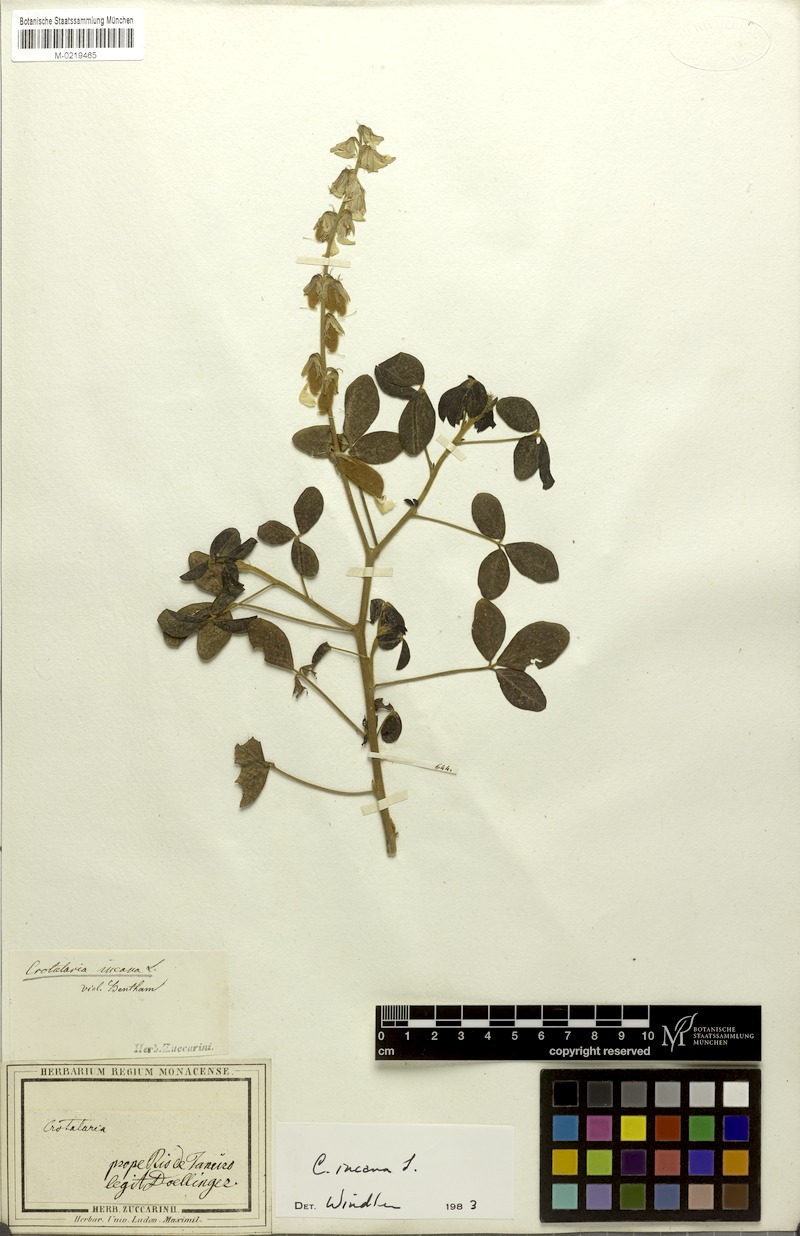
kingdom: Plantae
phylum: Tracheophyta
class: Magnoliopsida
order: Fabales
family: Fabaceae
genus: Crotalaria
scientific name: Crotalaria incana
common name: Shakeshake
